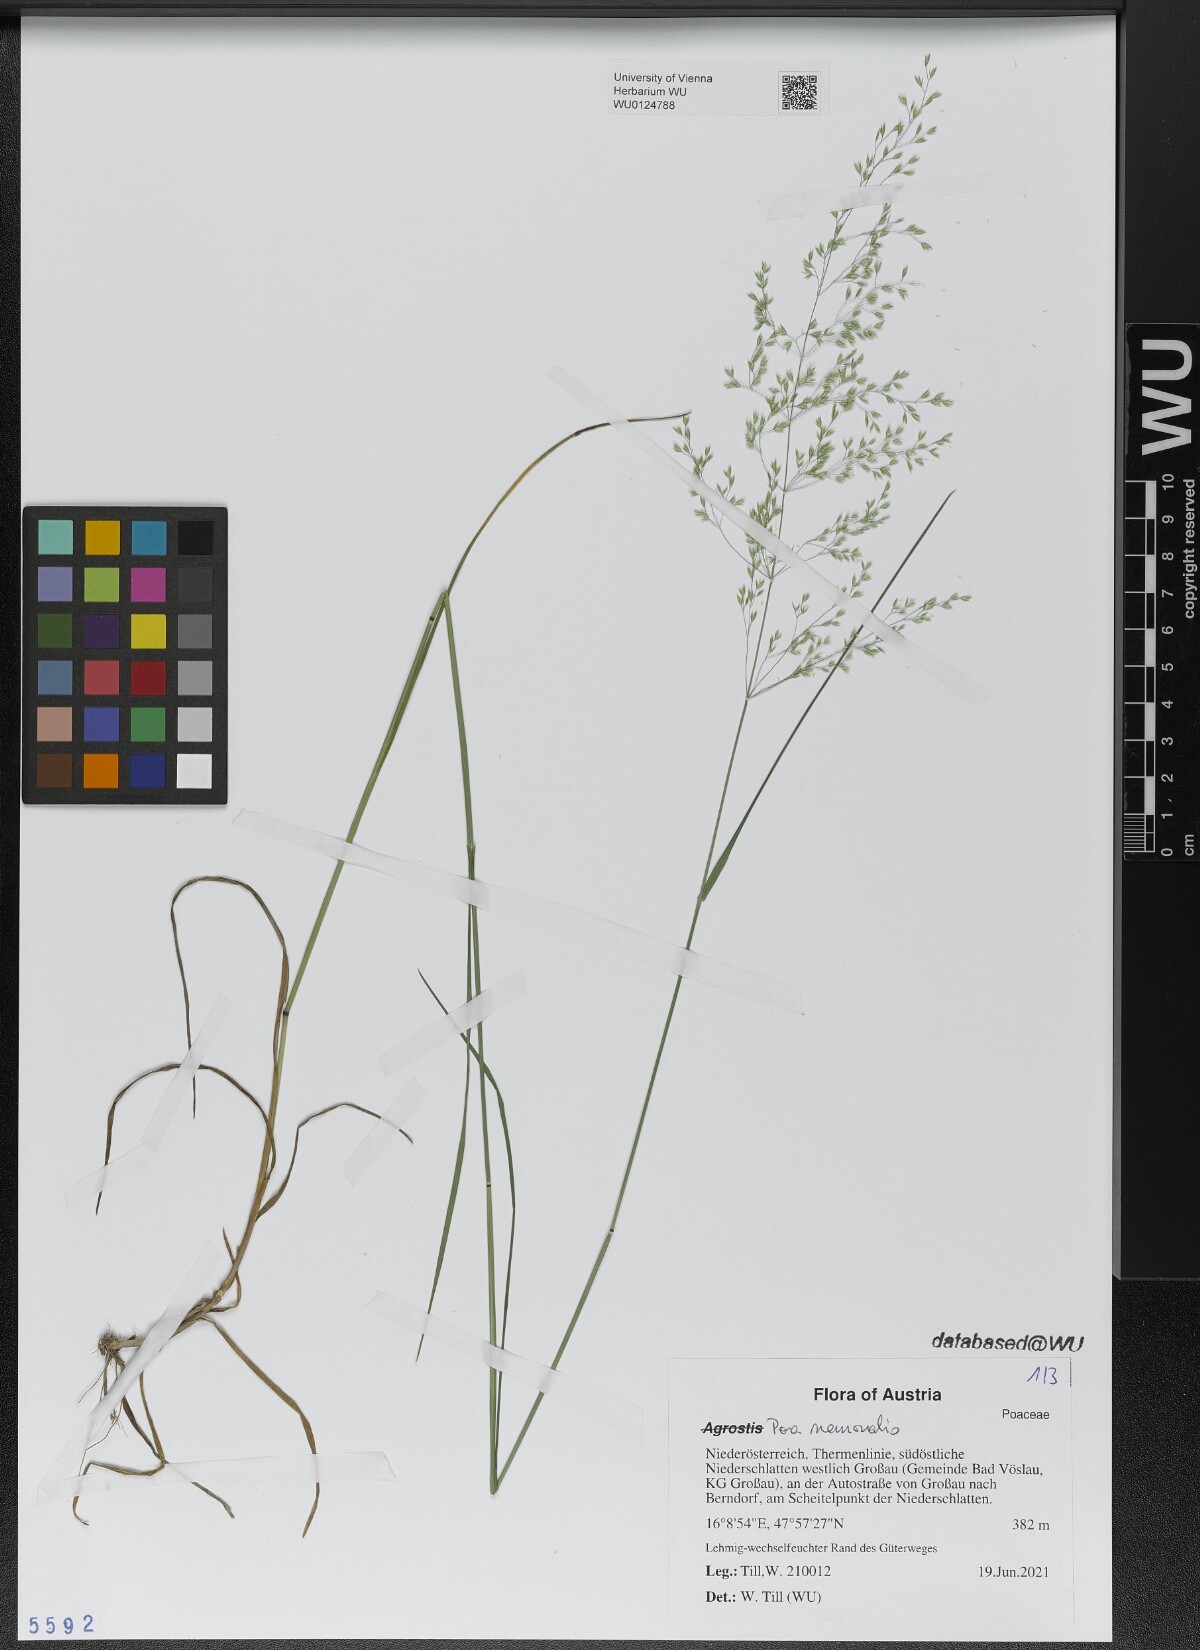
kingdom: Plantae
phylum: Tracheophyta
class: Liliopsida
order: Poales
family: Poaceae
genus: Poa
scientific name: Poa nemoralis
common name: Wood bluegrass
